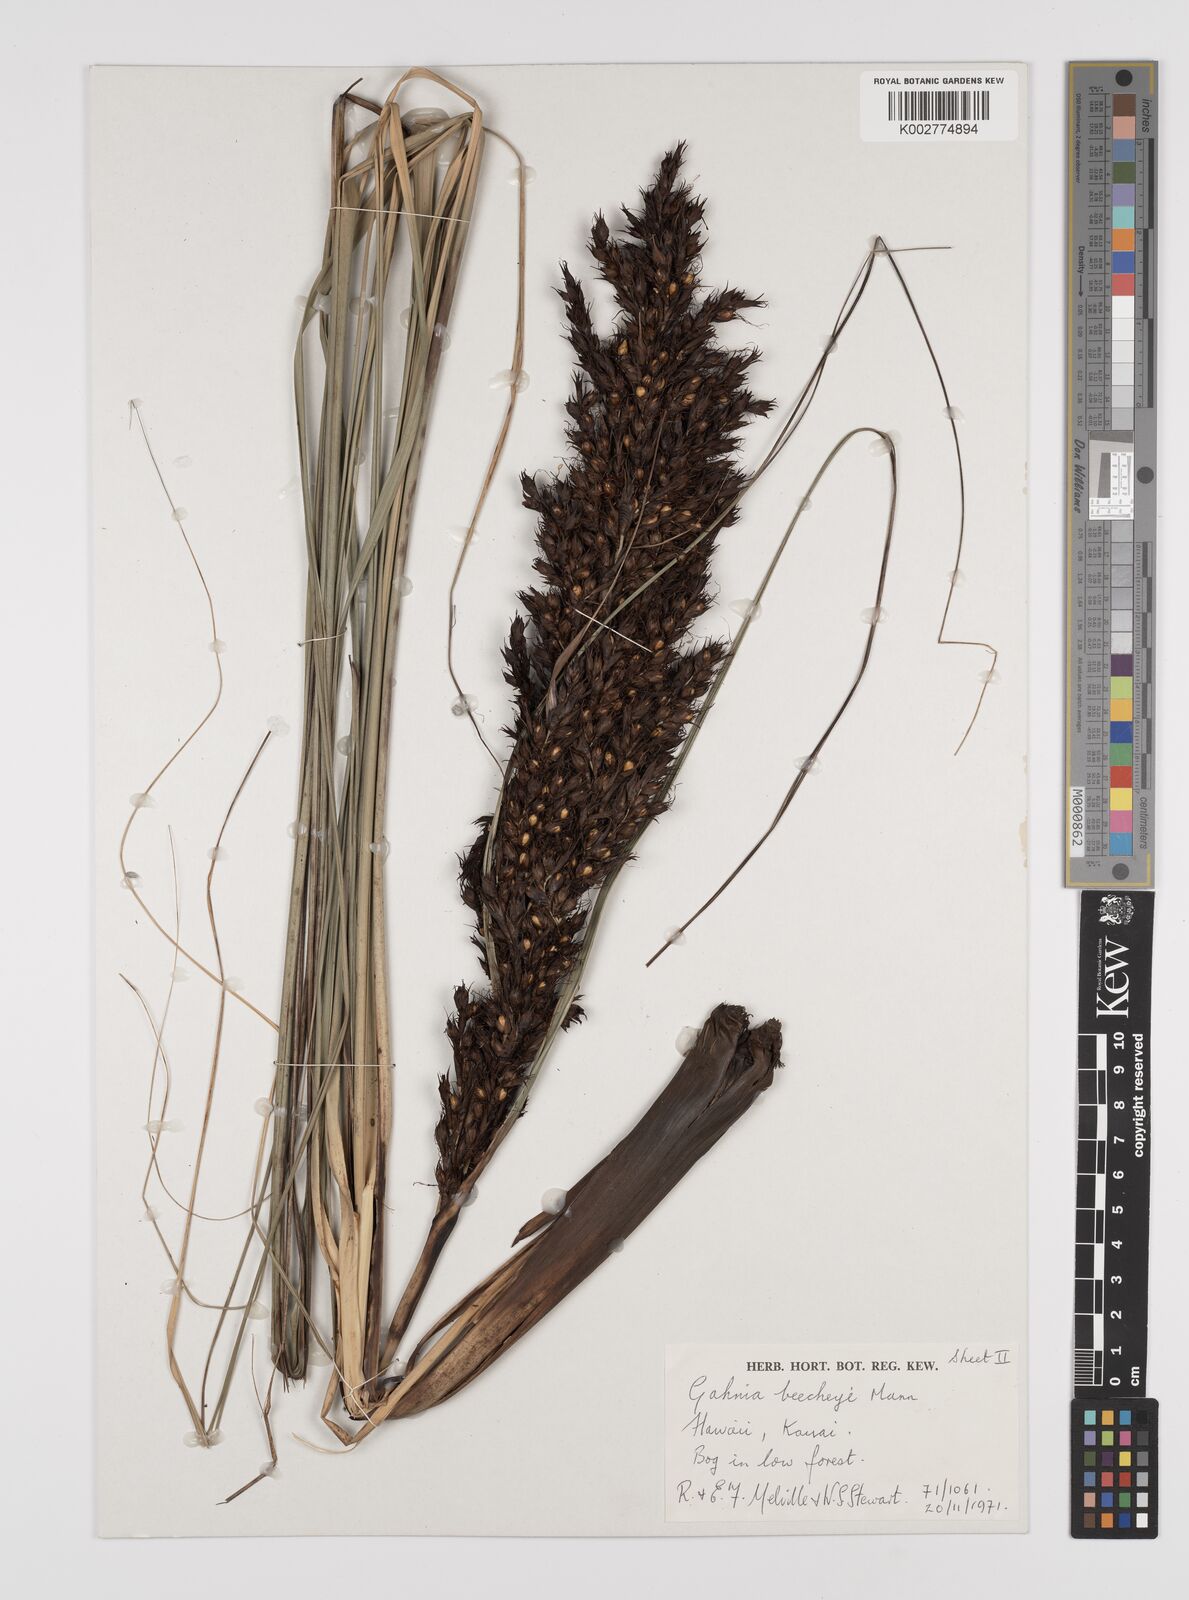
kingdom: Plantae
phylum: Tracheophyta
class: Liliopsida
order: Poales
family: Cyperaceae
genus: Gahnia
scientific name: Gahnia beecheyi
